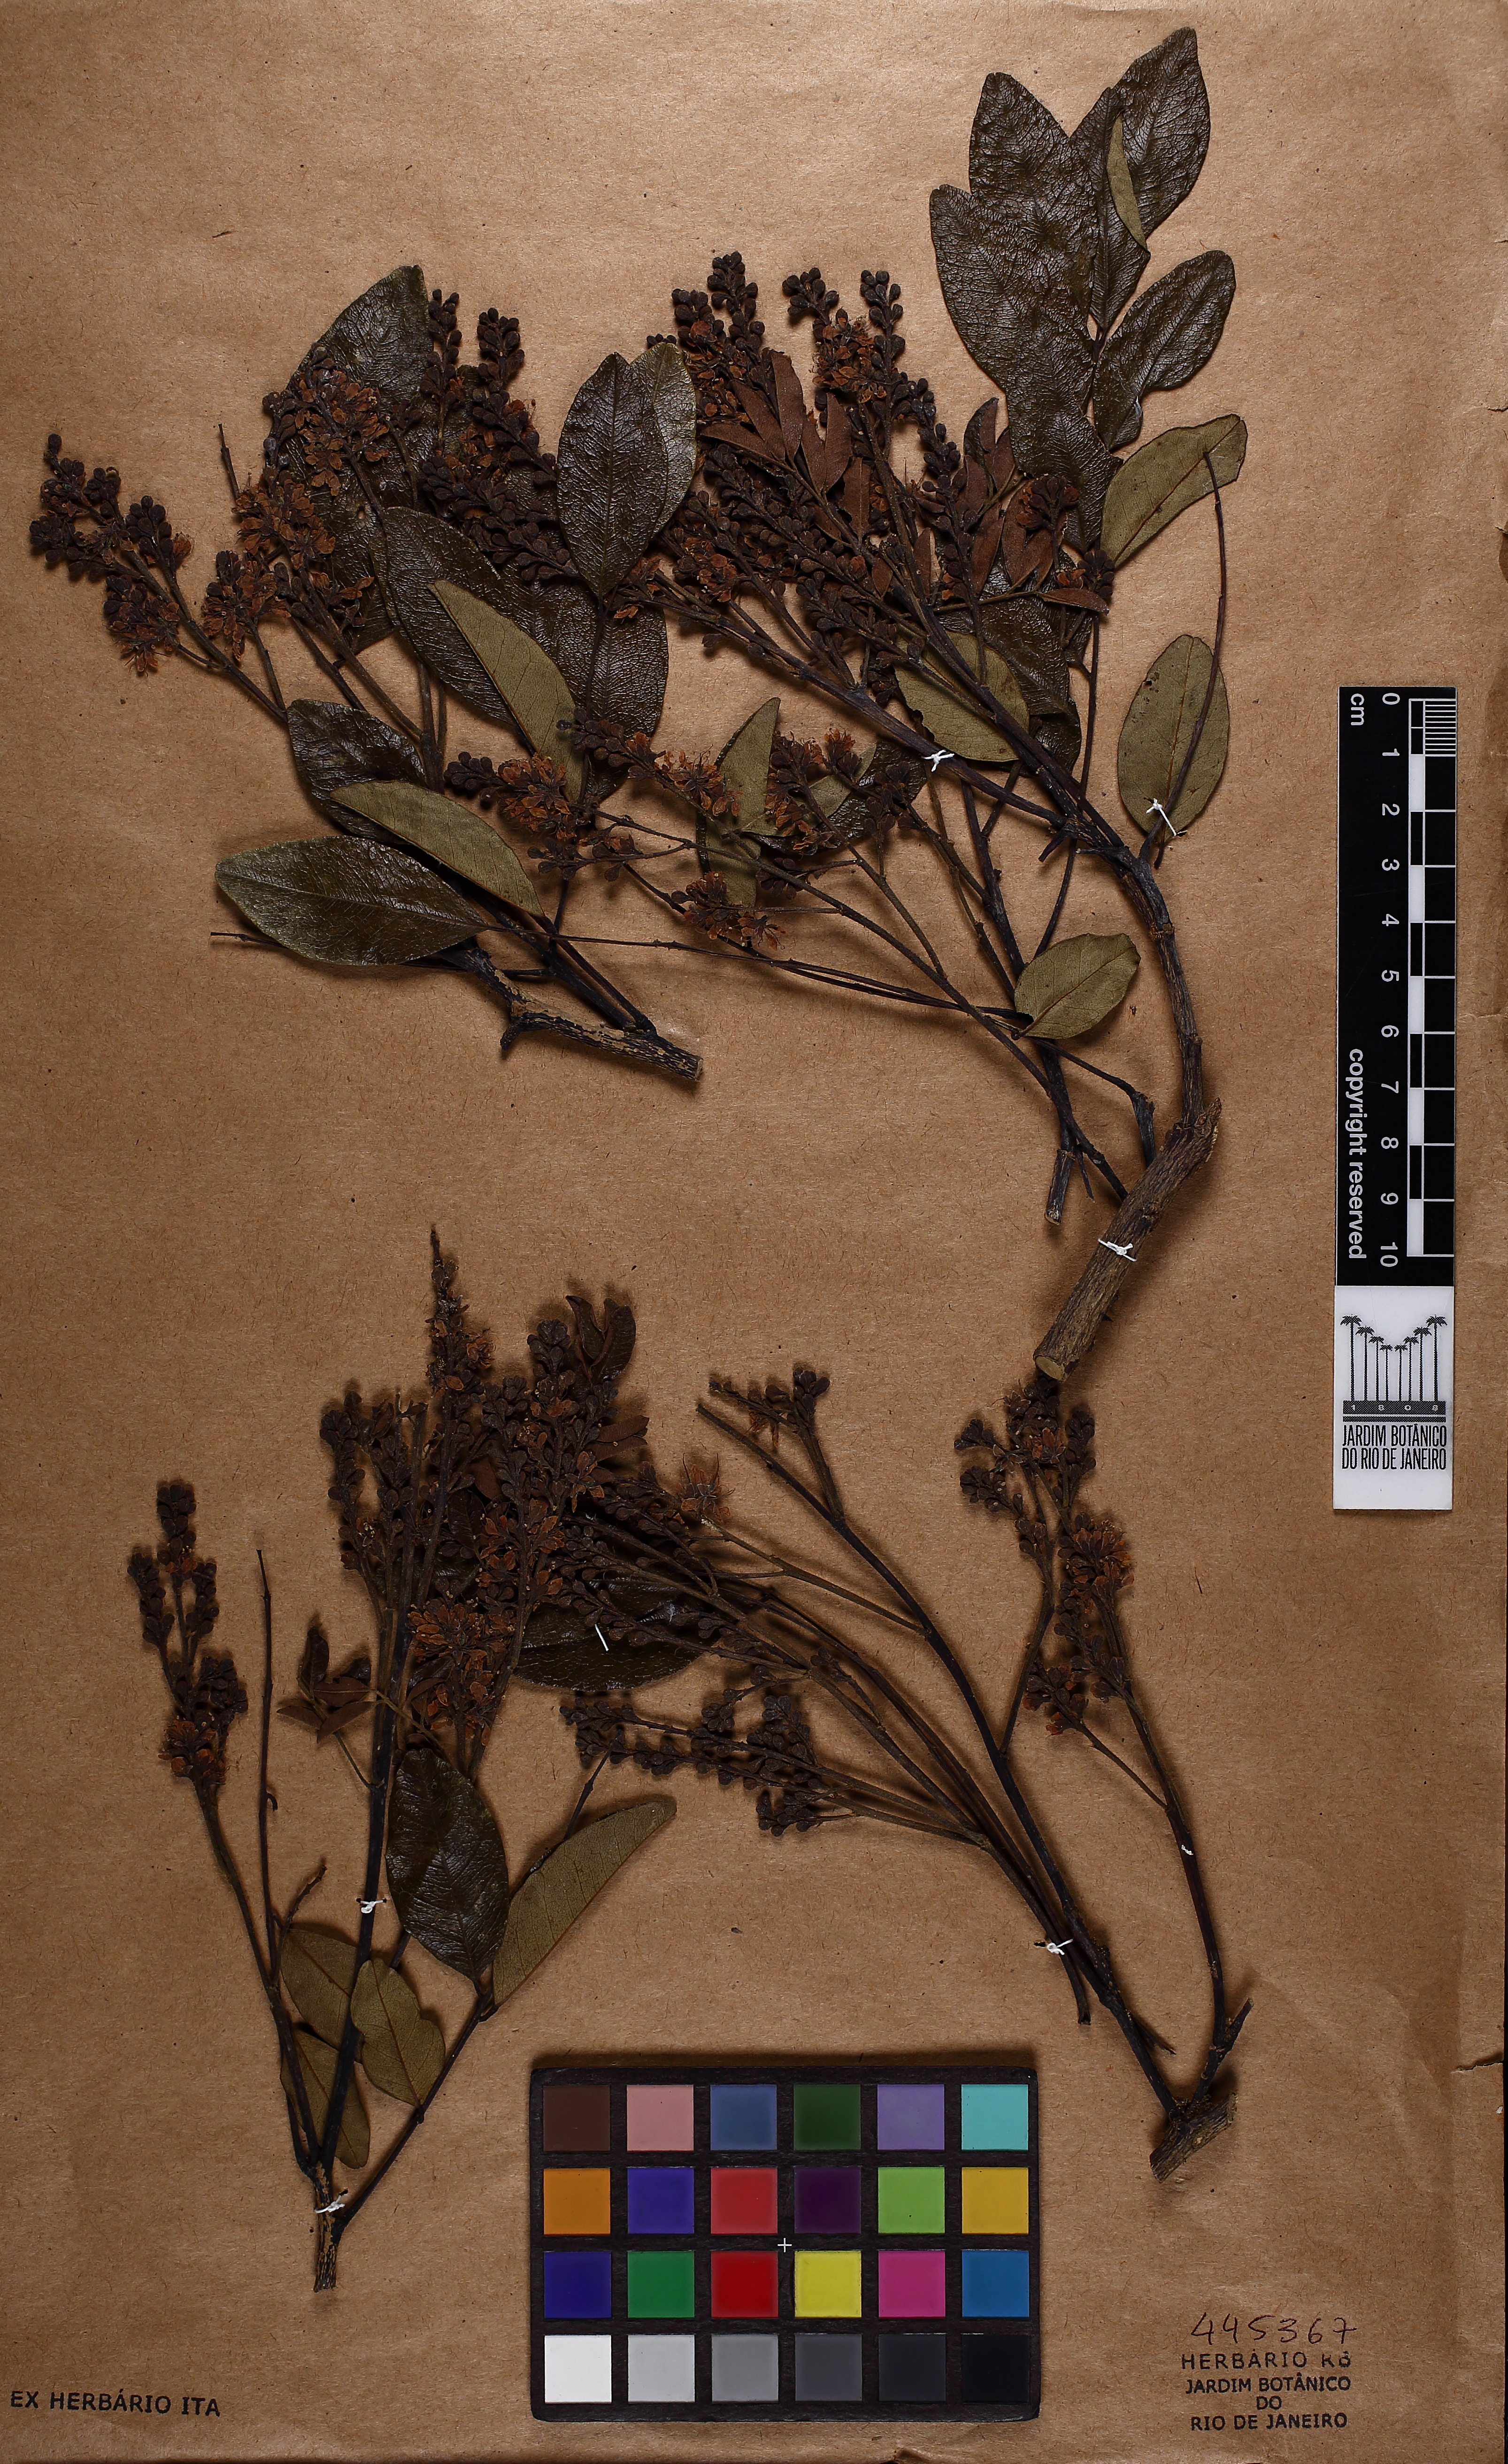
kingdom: Plantae
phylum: Tracheophyta
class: Magnoliopsida
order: Fabales
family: Fabaceae
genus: Leptolobium
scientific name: Leptolobium tenuifolium
